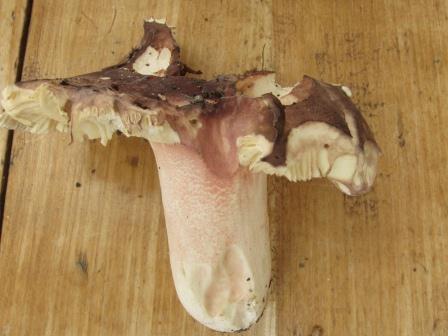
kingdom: Fungi
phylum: Basidiomycota
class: Agaricomycetes
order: Russulales
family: Russulaceae
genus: Russula
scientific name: Russula olivacea
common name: stor skørhat
